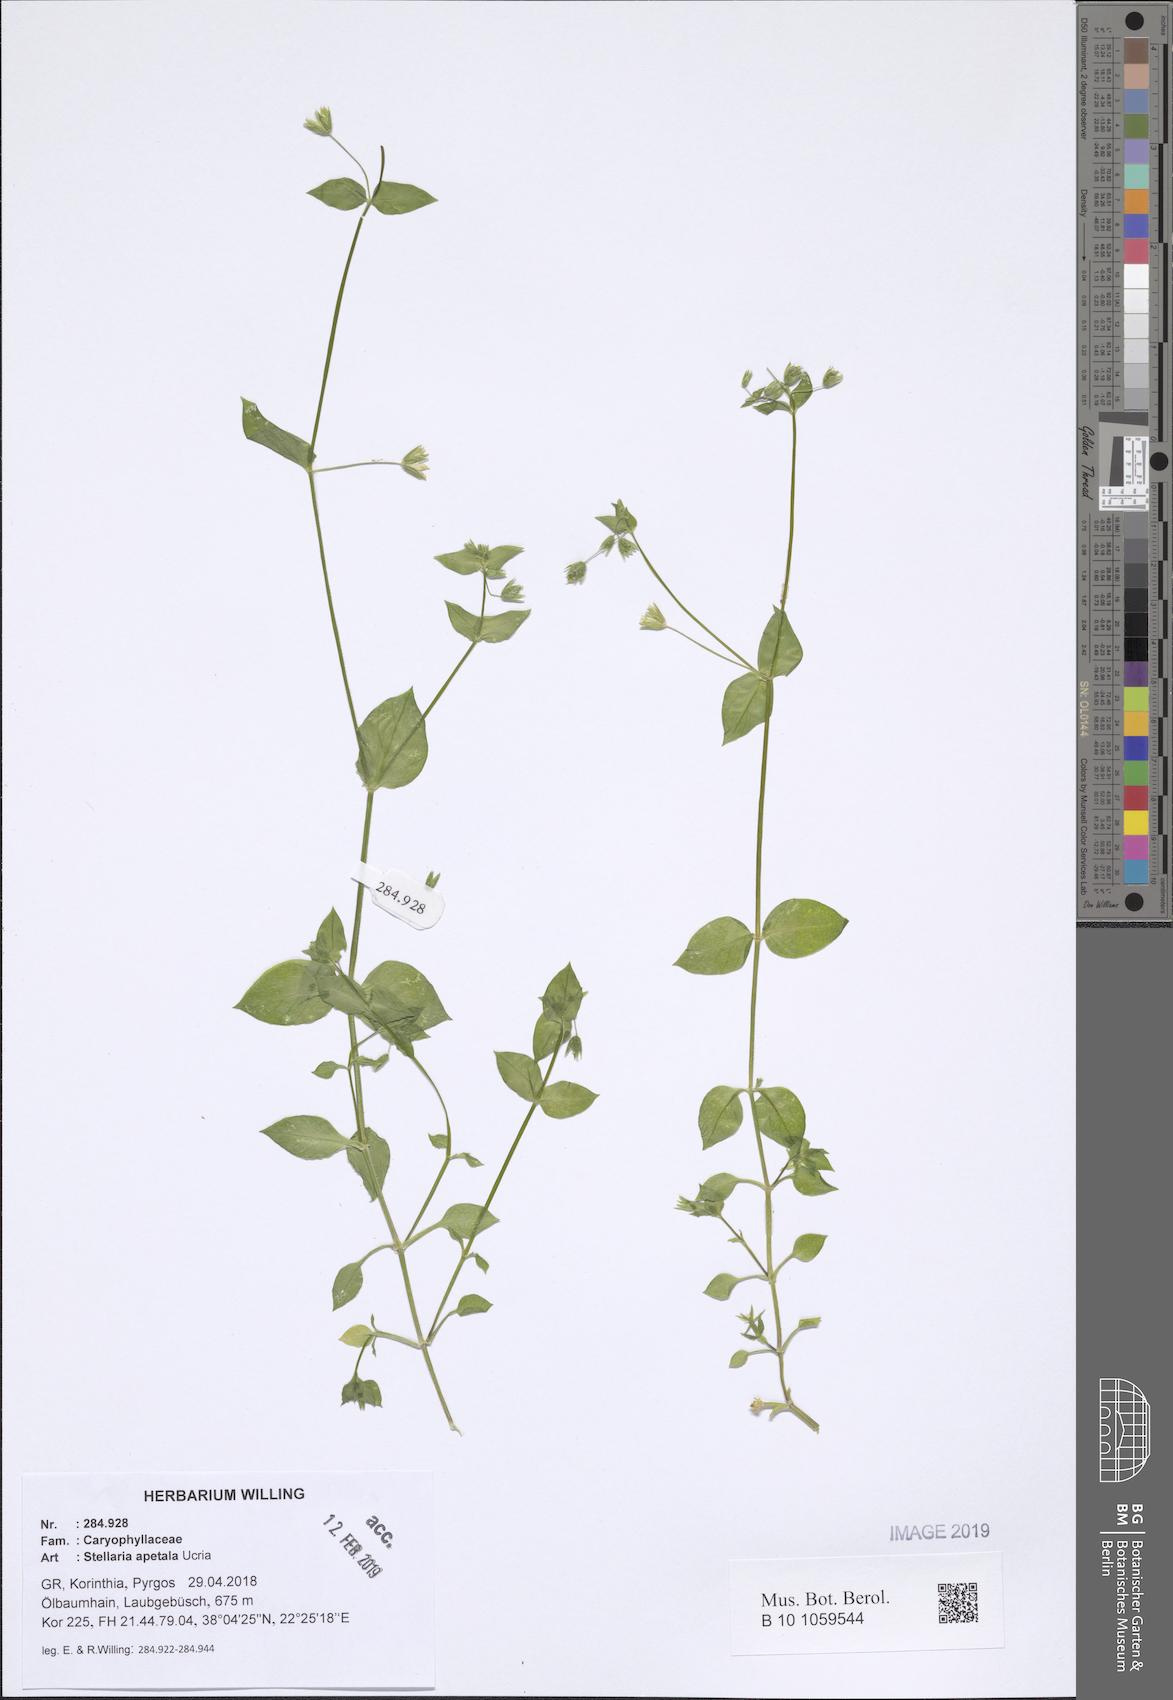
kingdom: Plantae
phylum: Tracheophyta
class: Magnoliopsida
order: Caryophyllales
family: Caryophyllaceae
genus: Stellaria
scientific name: Stellaria apetala
